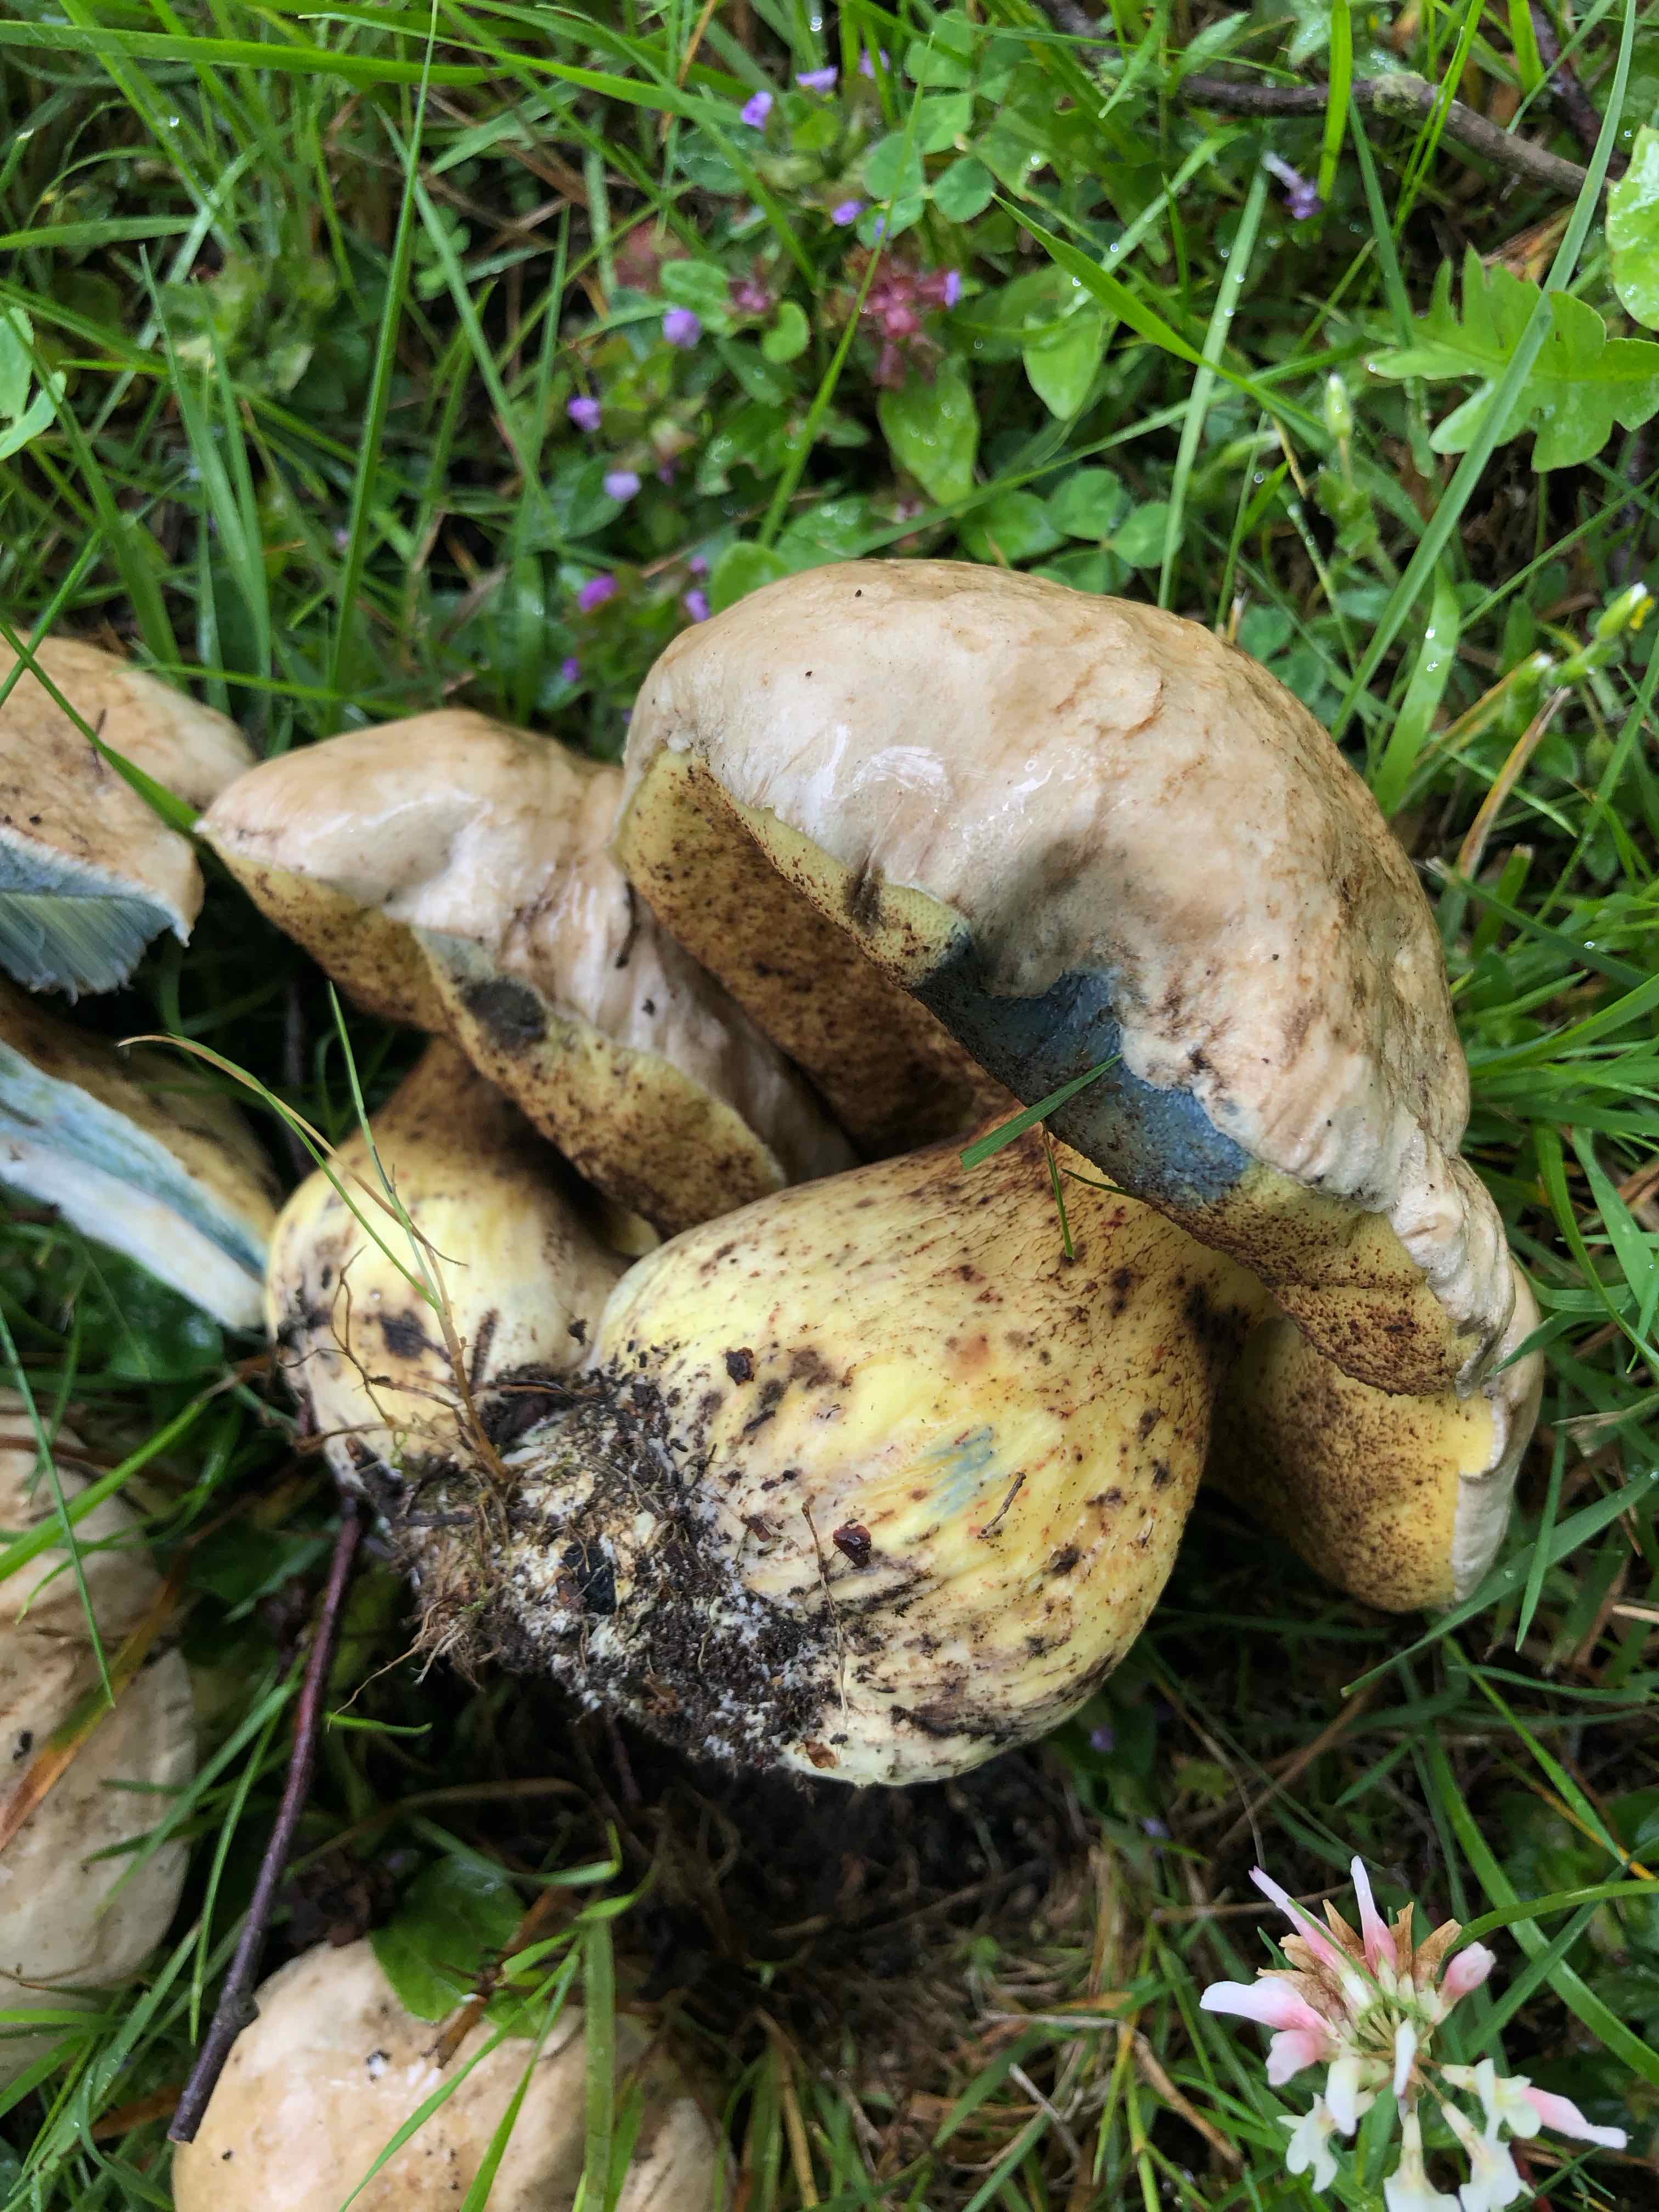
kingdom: Fungi
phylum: Basidiomycota
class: Agaricomycetes
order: Boletales
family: Boletaceae
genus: Caloboletus
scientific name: Caloboletus radicans
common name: rod-rørhat
